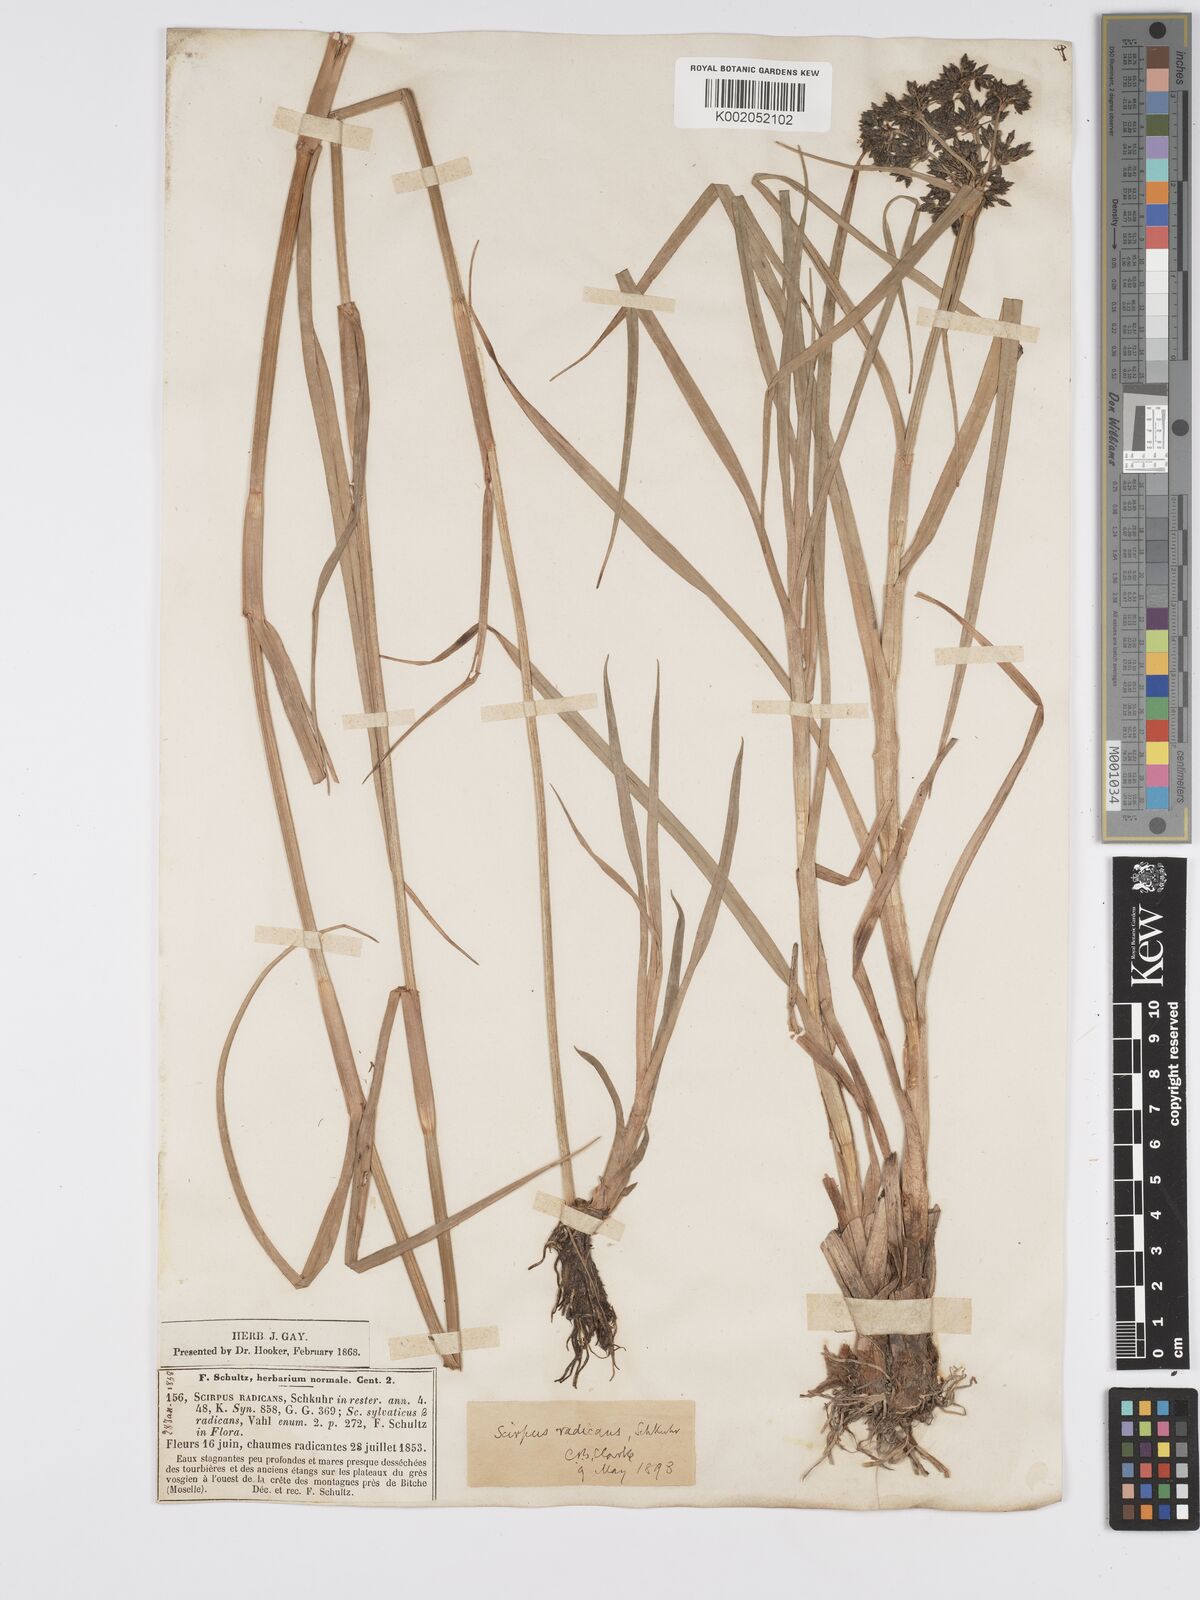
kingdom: Plantae
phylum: Tracheophyta
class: Liliopsida
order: Poales
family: Cyperaceae
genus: Scirpus
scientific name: Scirpus radicans
